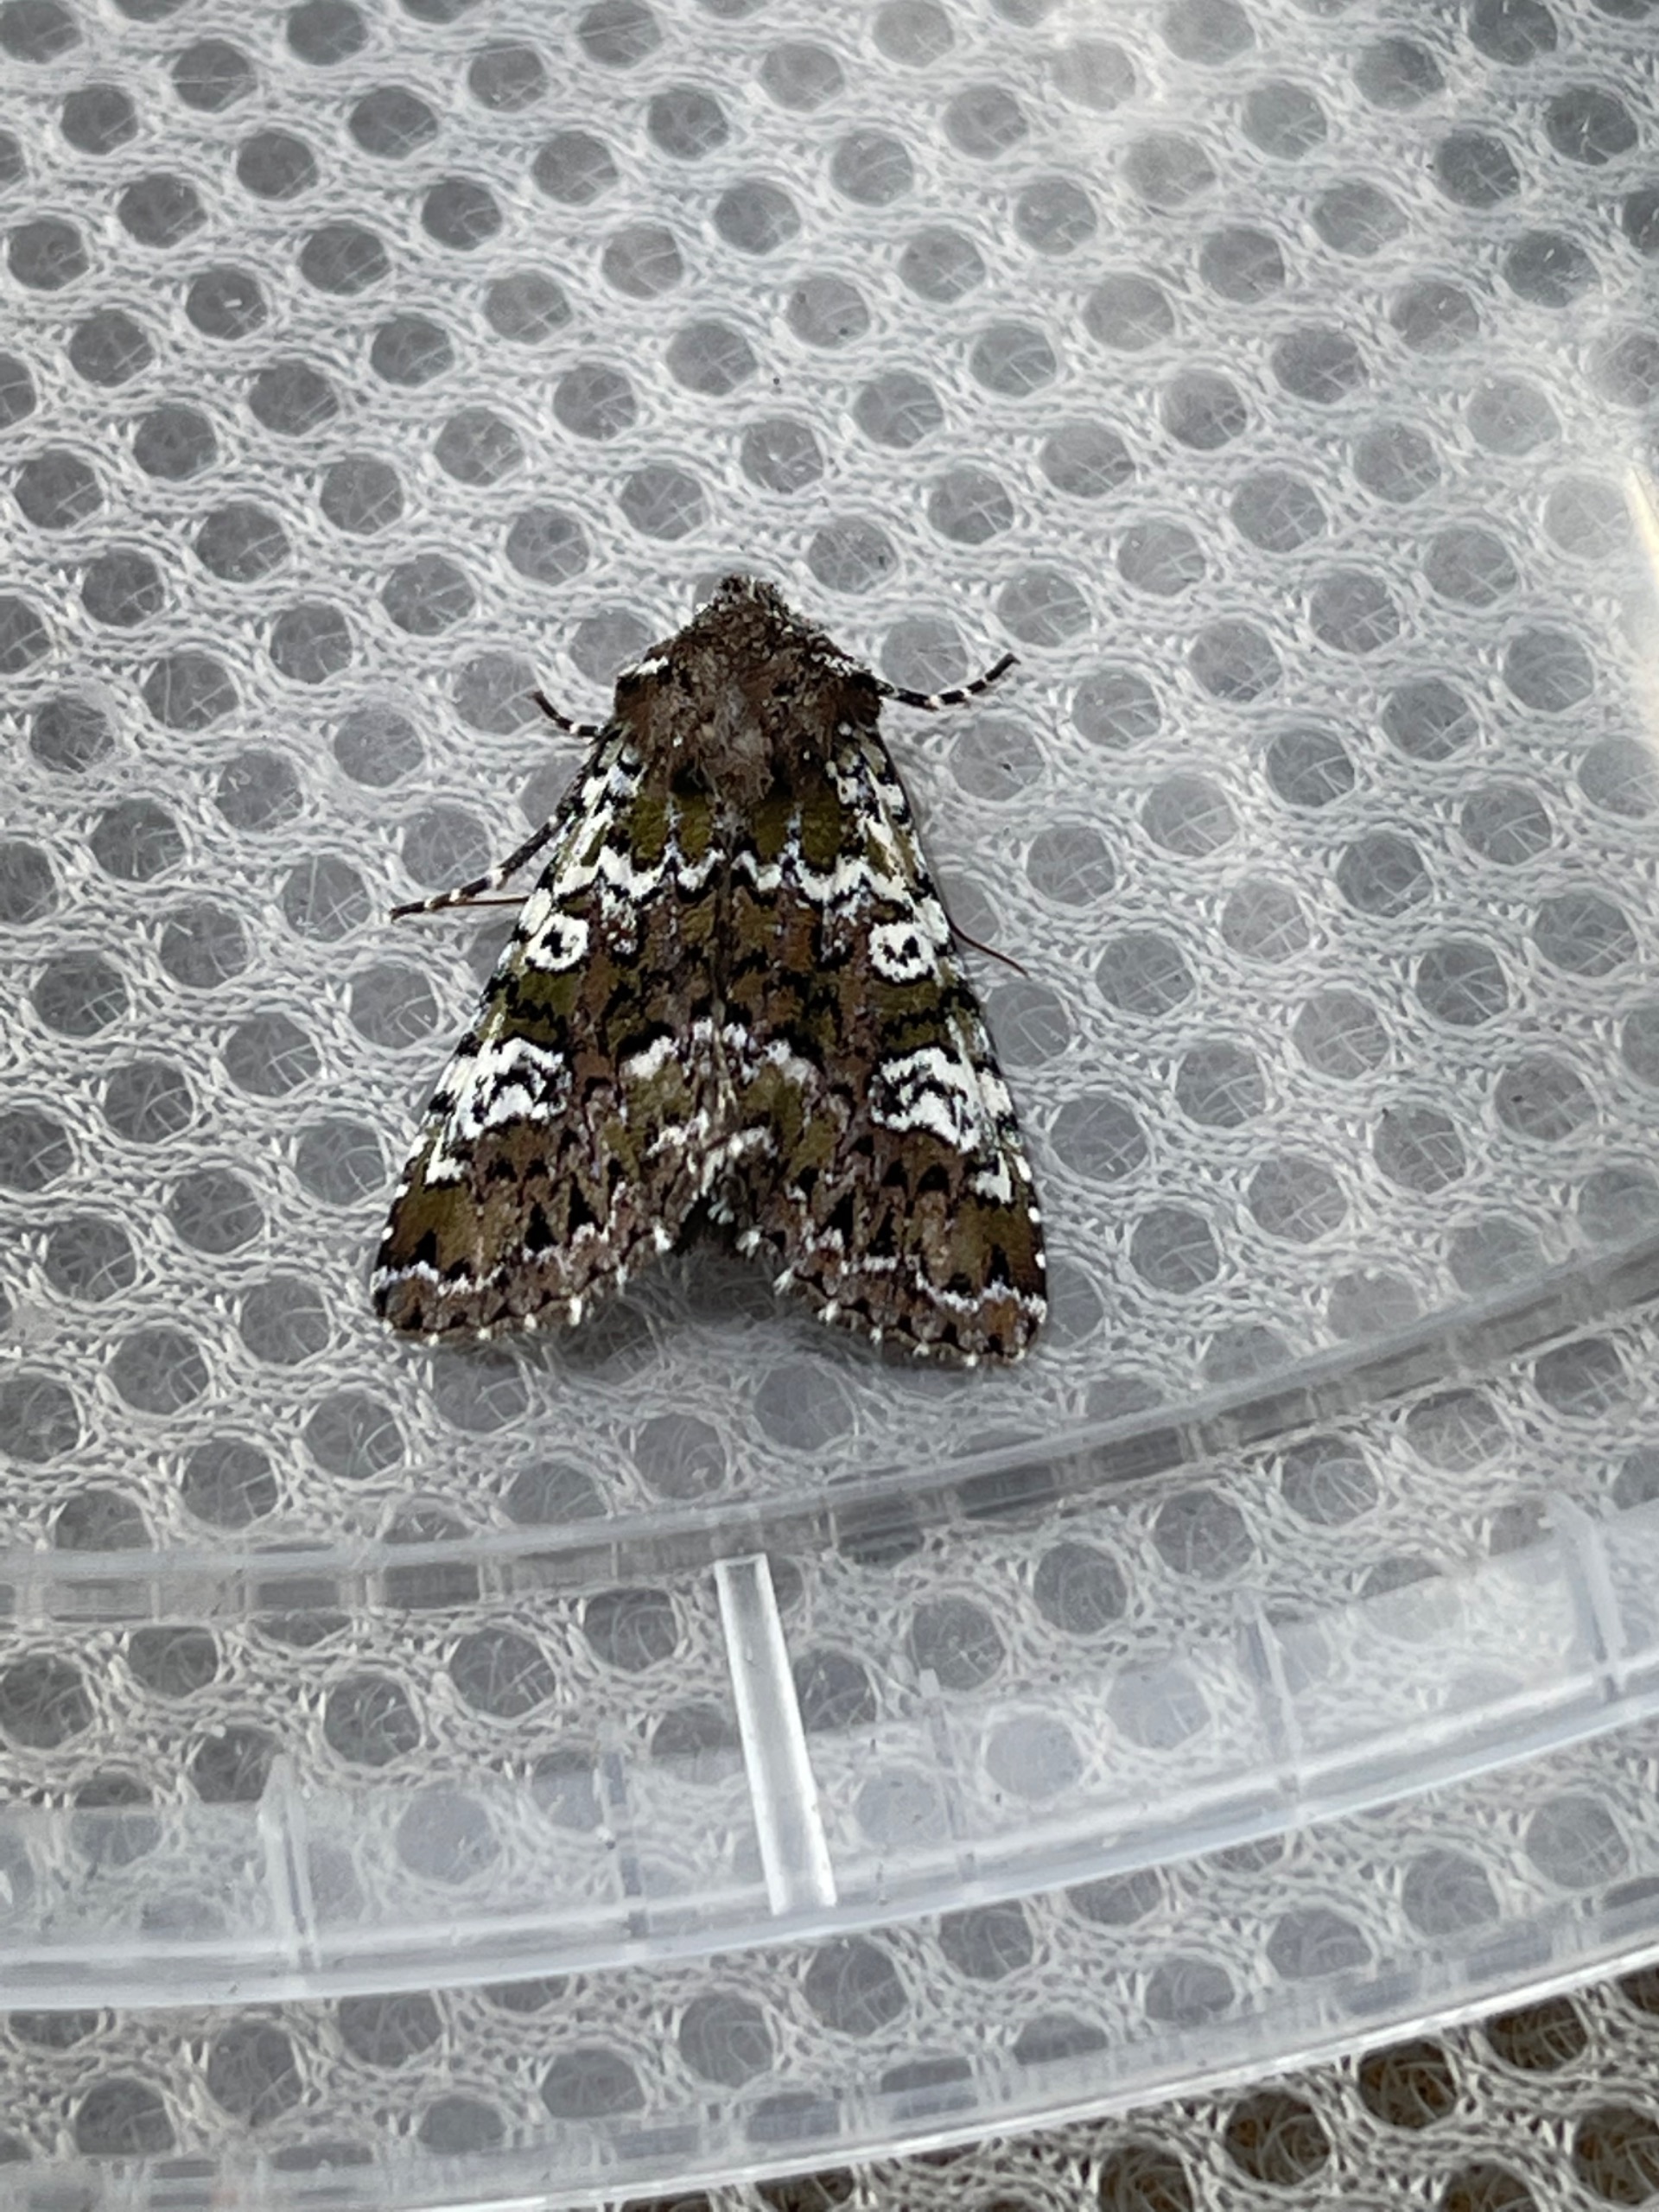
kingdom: Animalia
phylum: Arthropoda
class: Insecta
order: Lepidoptera
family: Noctuidae
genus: Crypsedra
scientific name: Crypsedra gemmea
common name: Smykke-stængelugle
